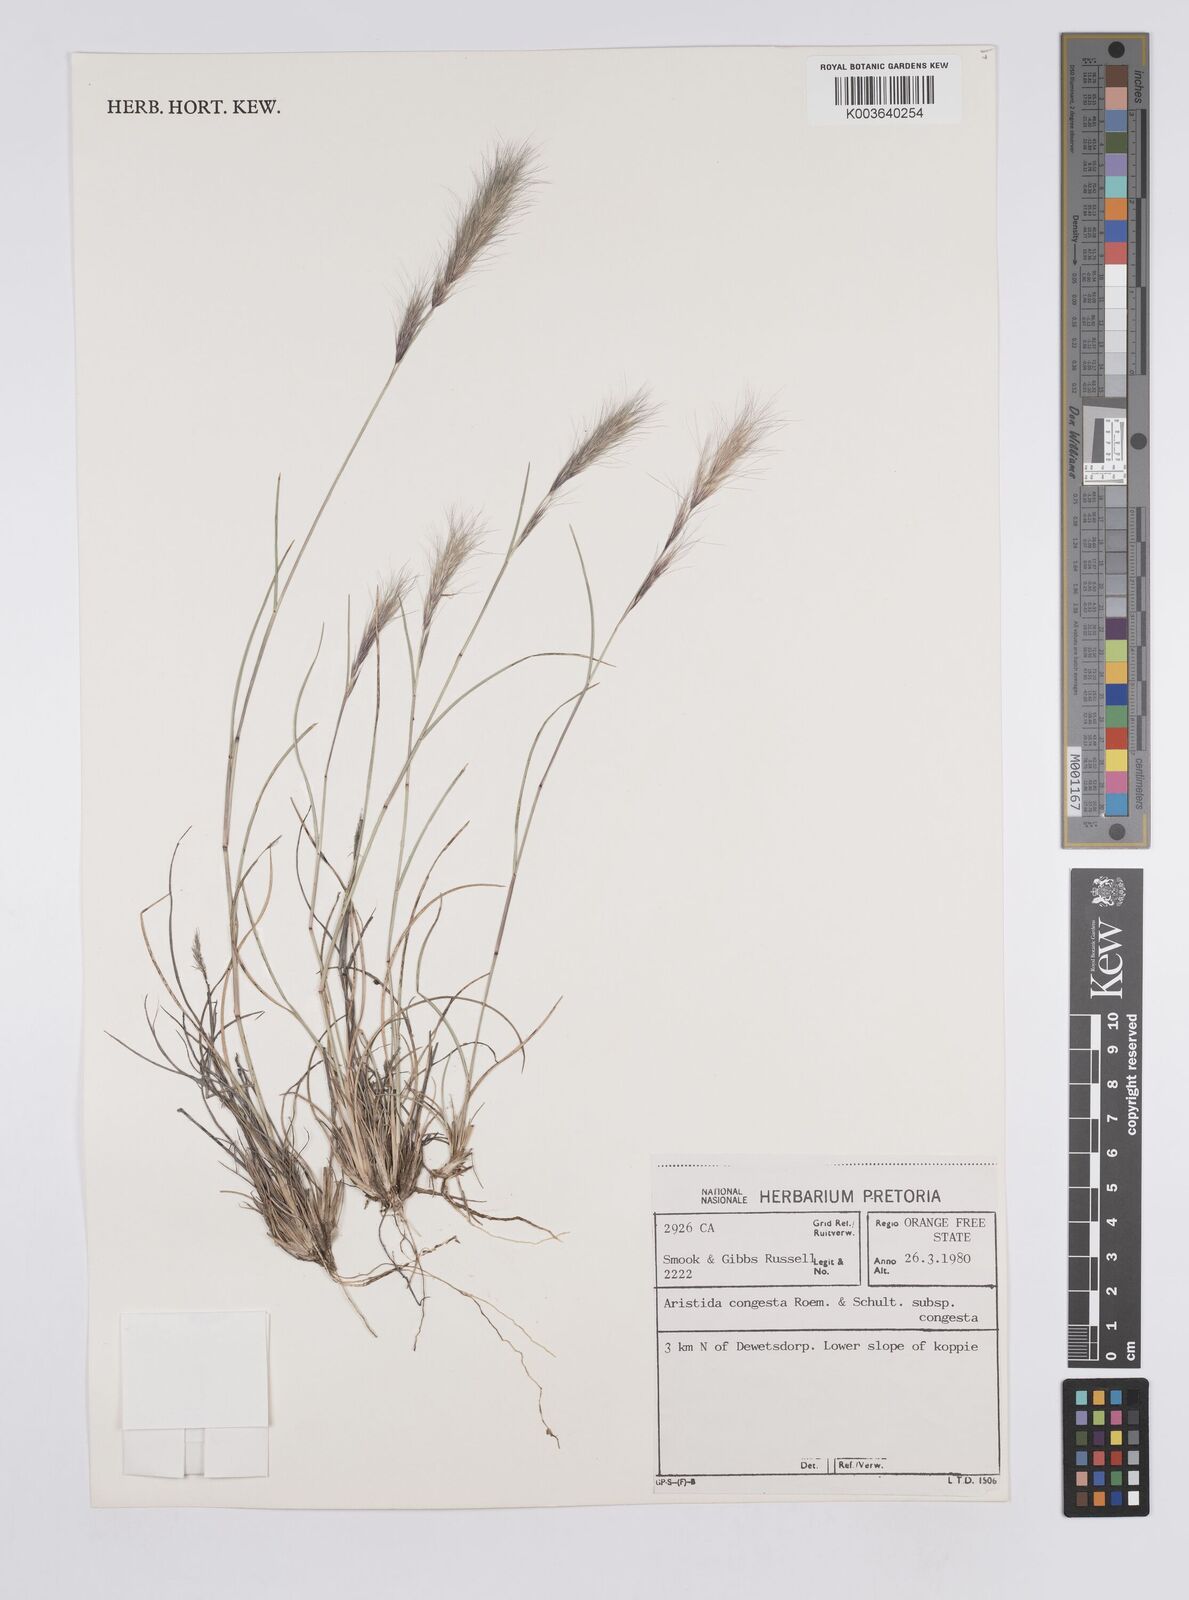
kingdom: Plantae
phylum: Tracheophyta
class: Liliopsida
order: Poales
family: Poaceae
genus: Aristida
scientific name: Aristida congesta
